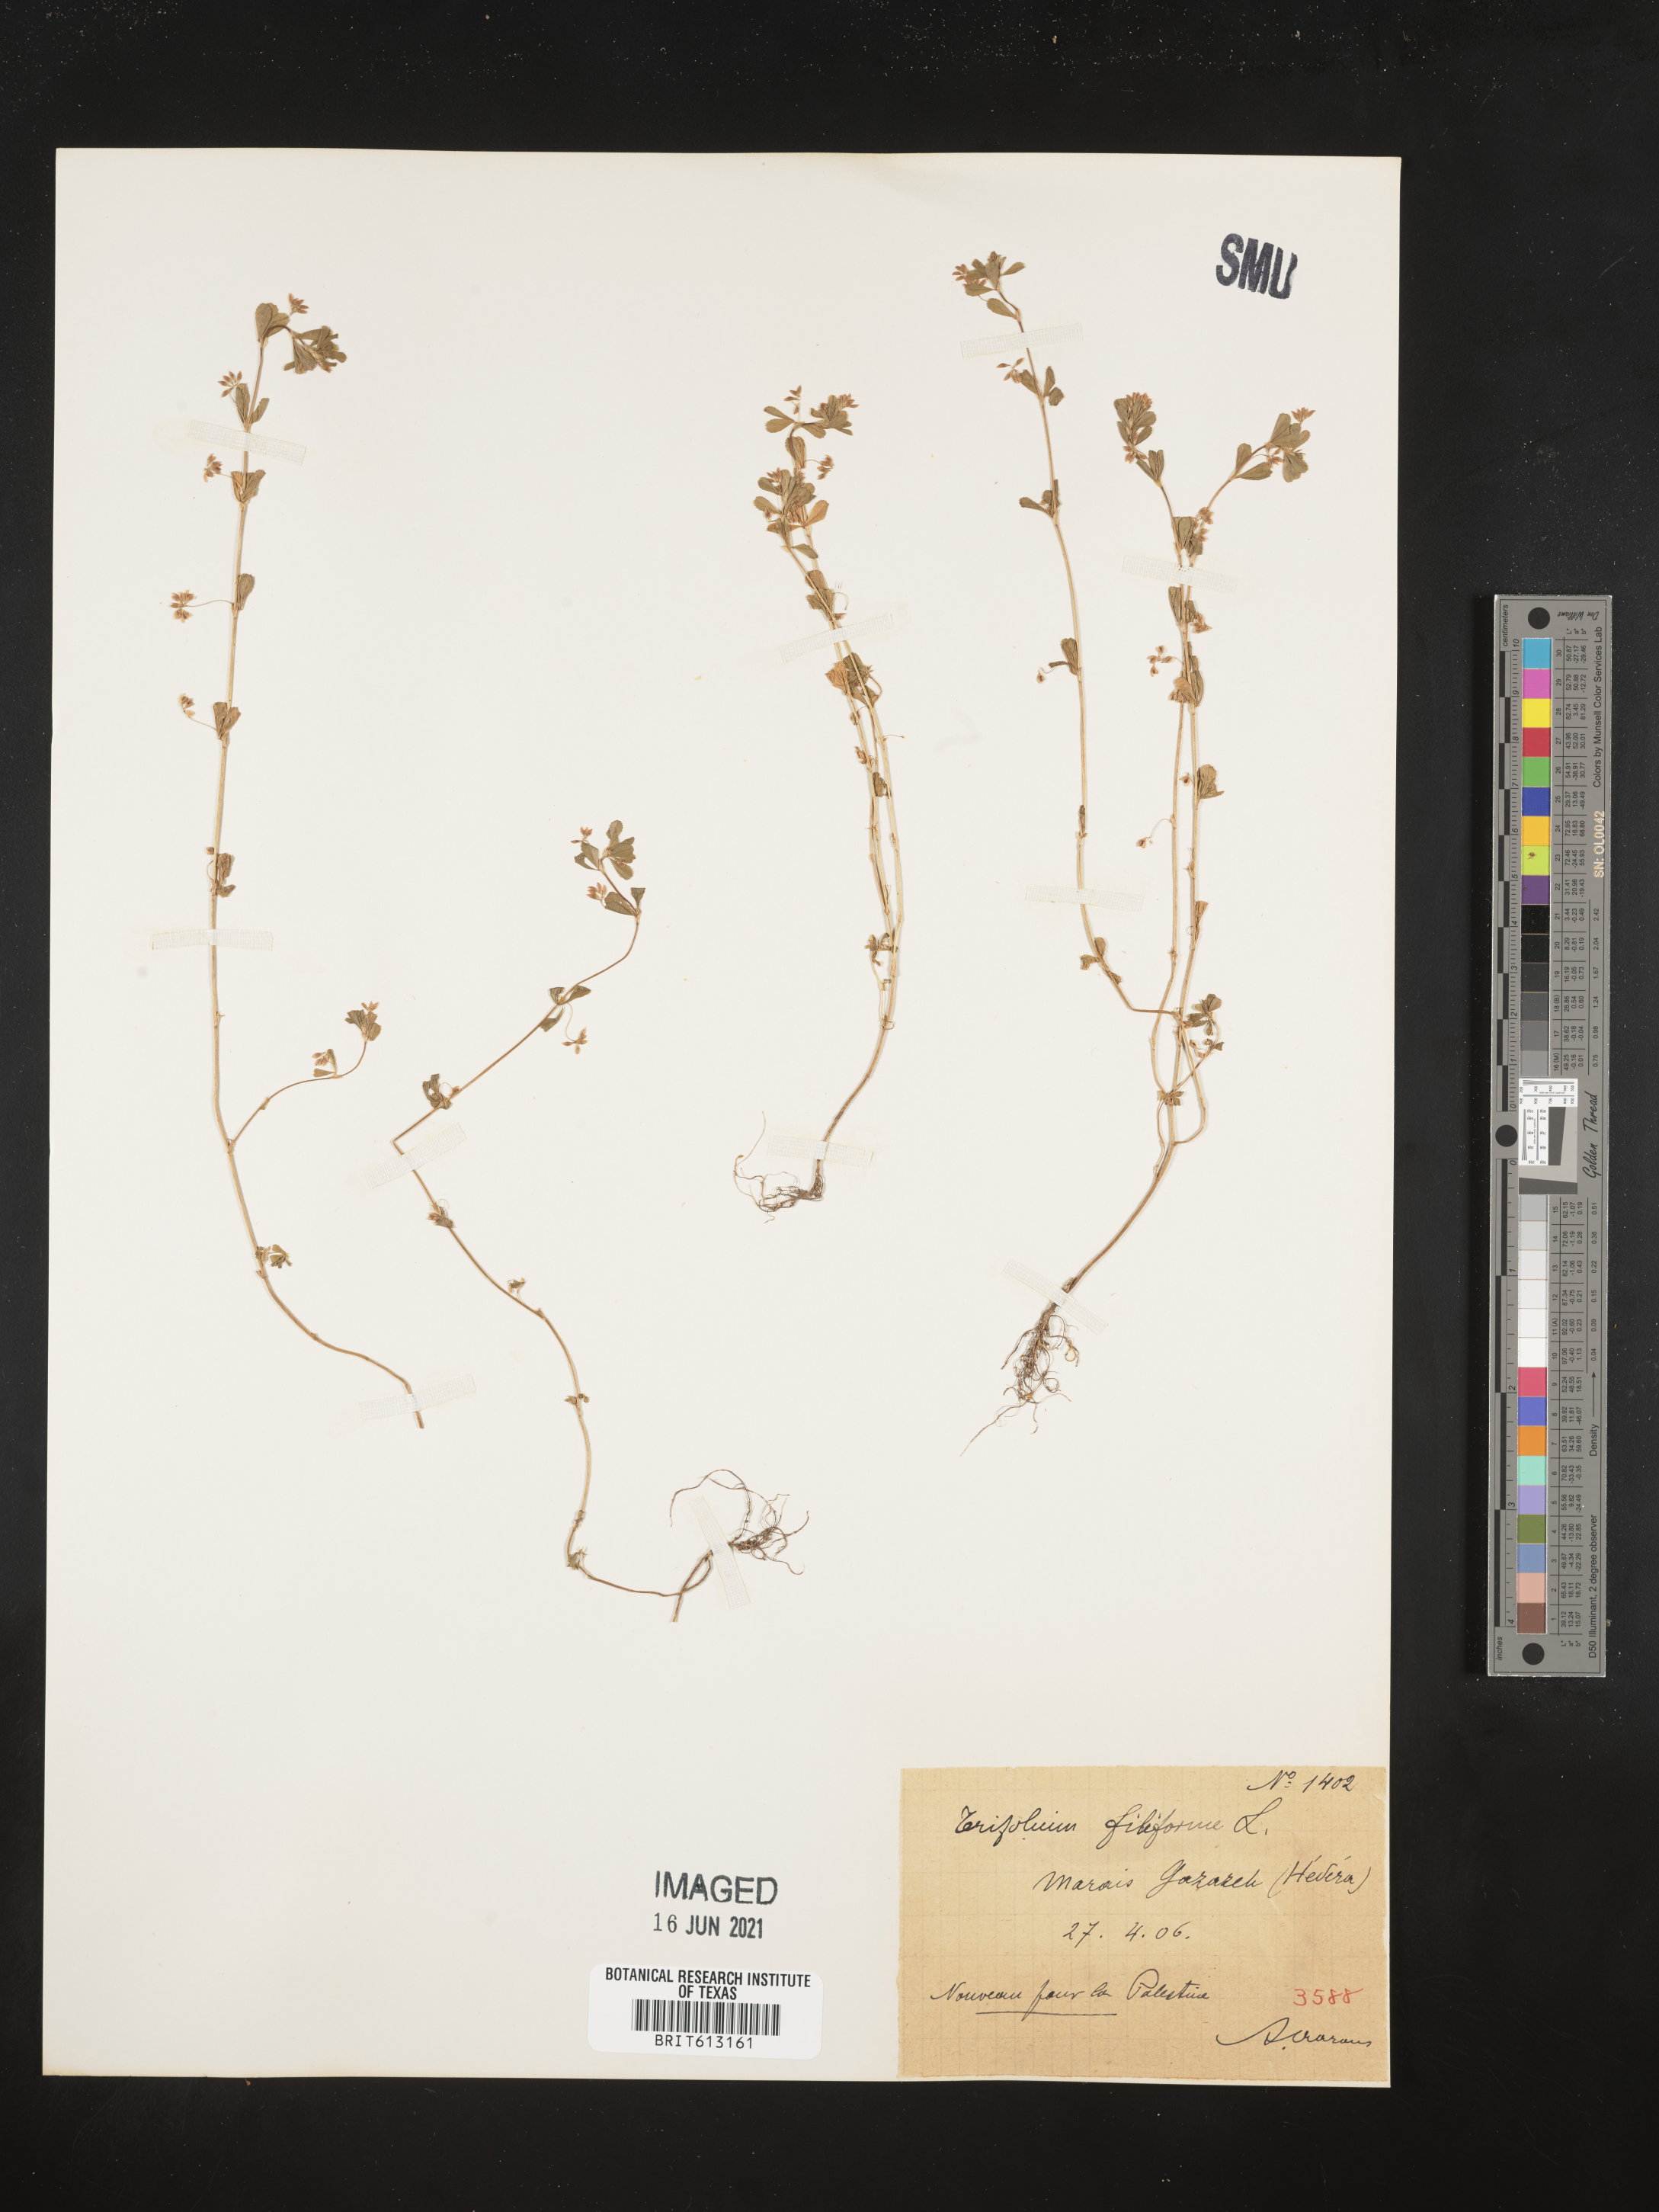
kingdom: Plantae
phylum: Tracheophyta
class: Magnoliopsida
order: Fabales
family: Fabaceae
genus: Trifolium
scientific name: Trifolium micranthum
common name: Slender trefoil
